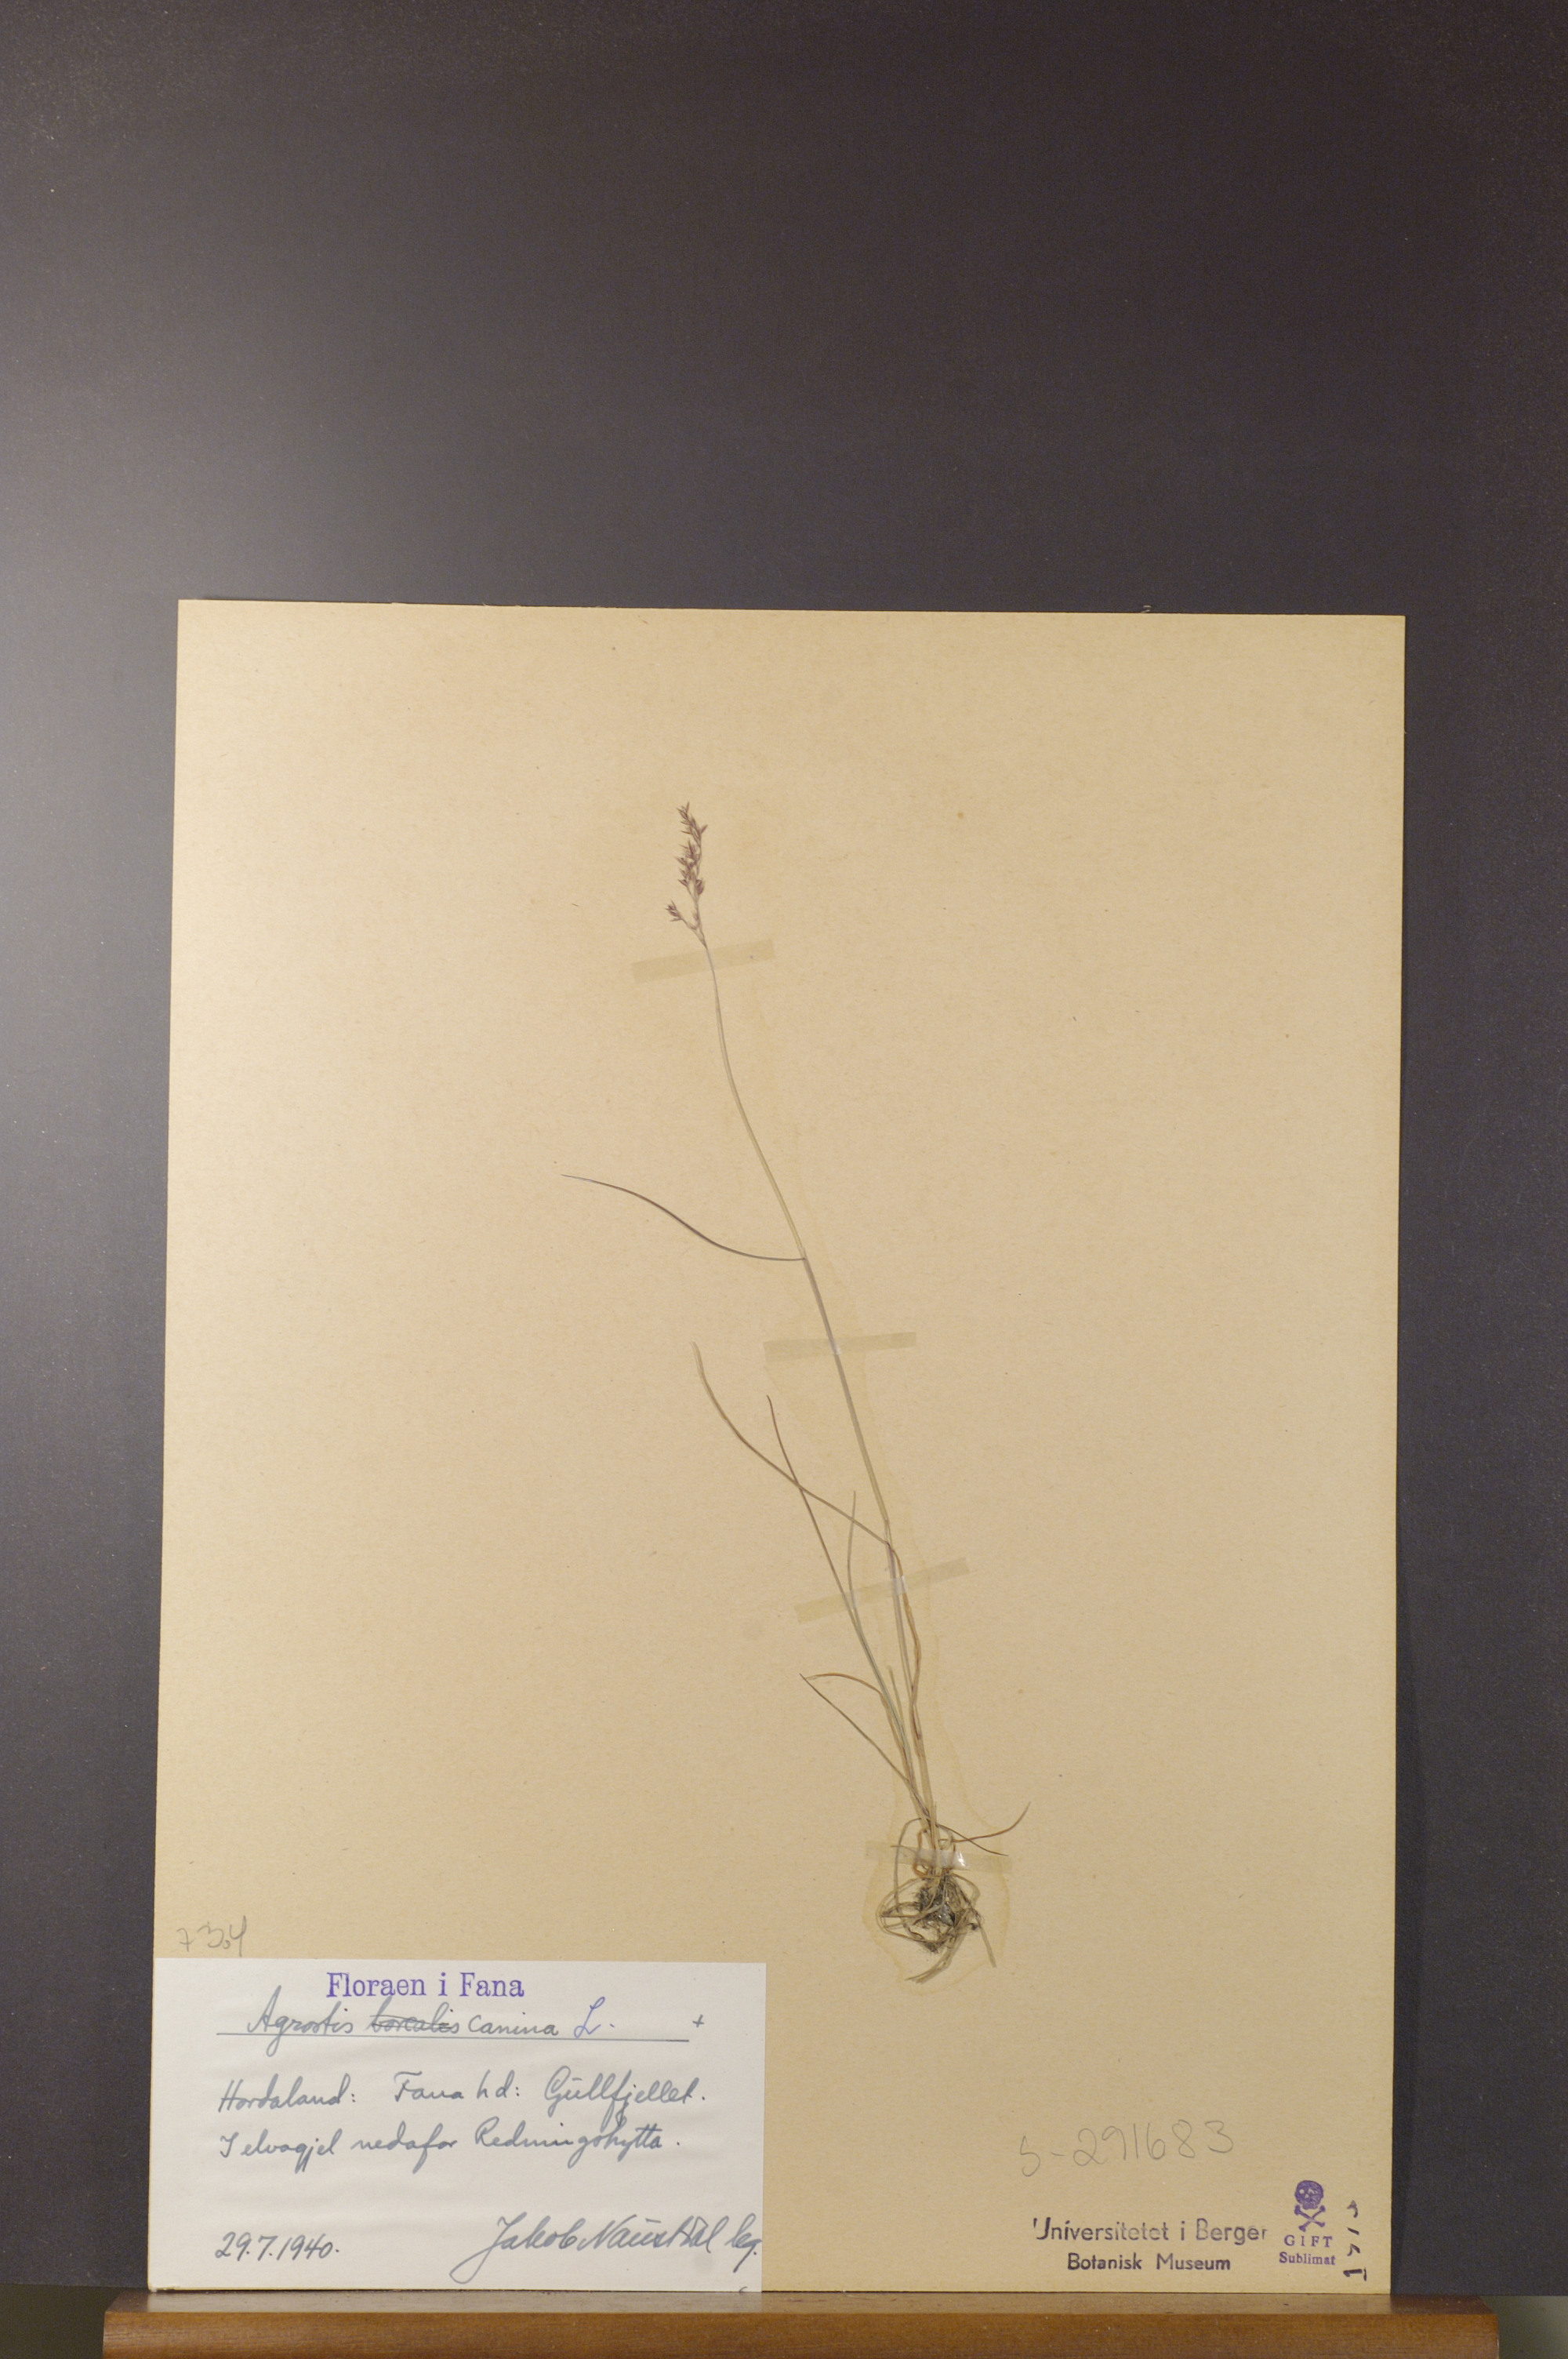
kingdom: Plantae
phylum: Tracheophyta
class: Liliopsida
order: Poales
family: Poaceae
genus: Agrostis
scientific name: Agrostis canina
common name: Velvet bent
